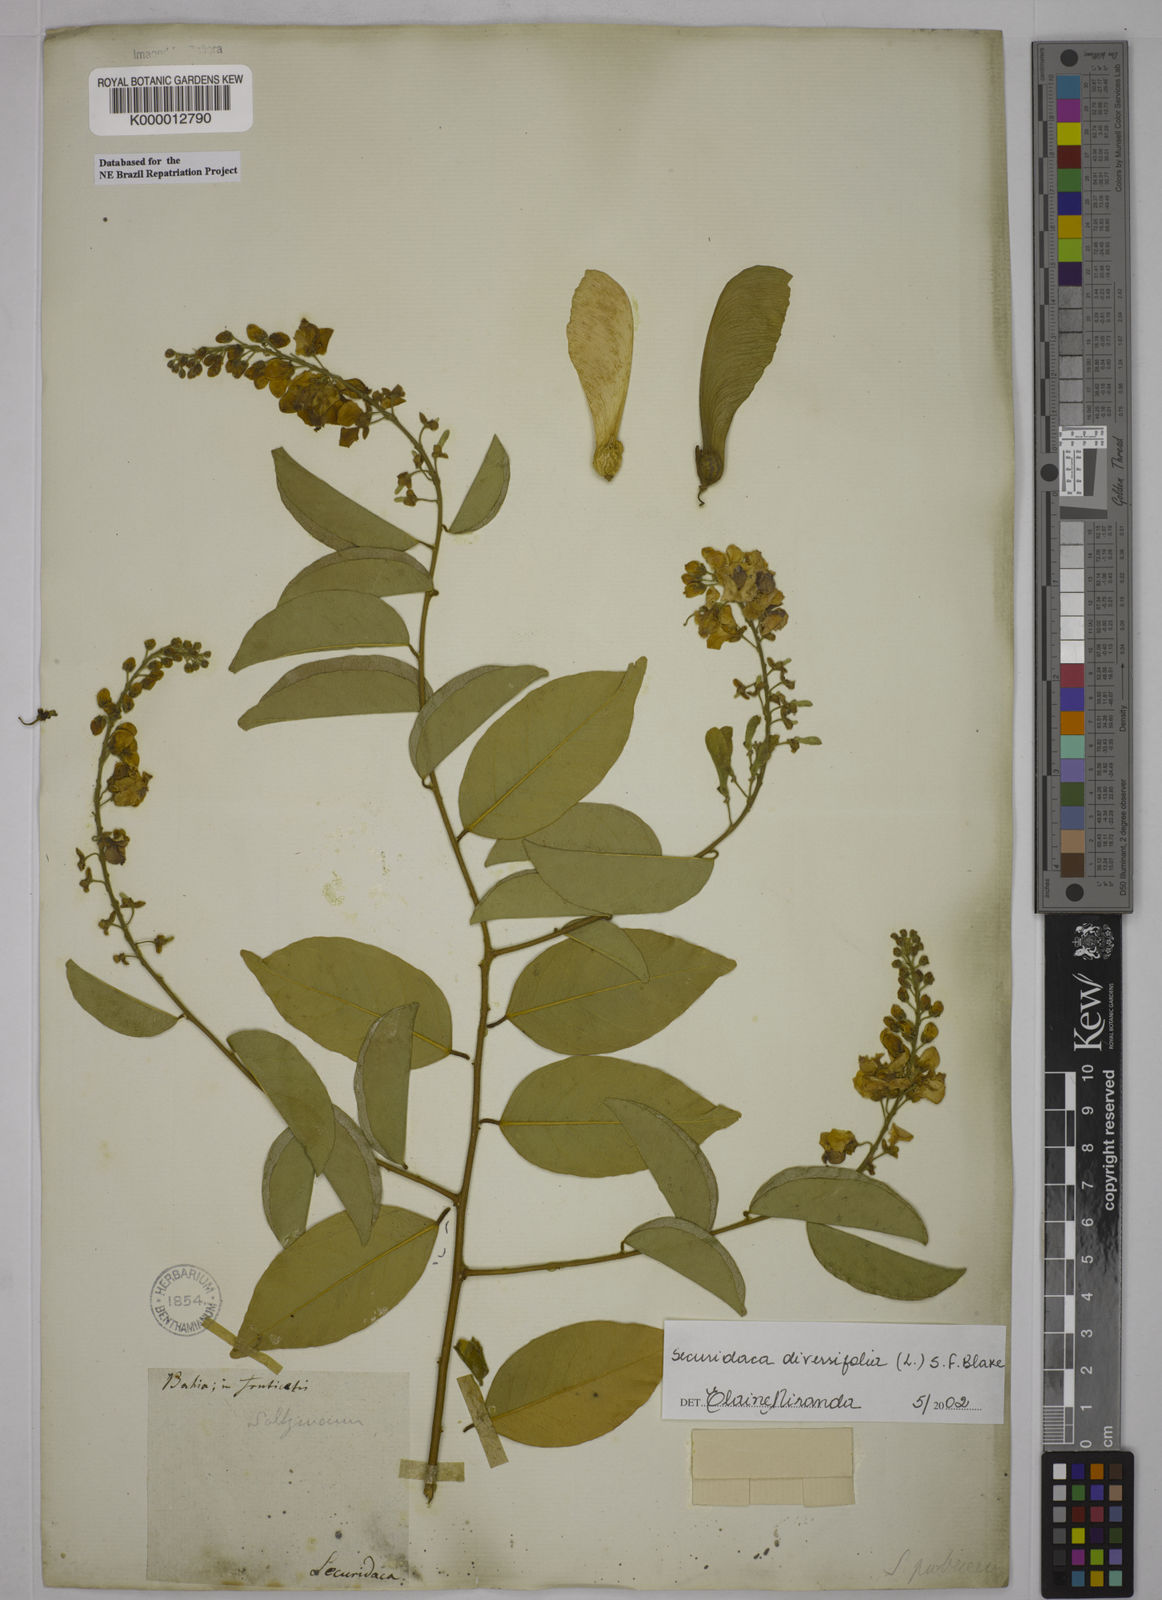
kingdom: Plantae
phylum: Tracheophyta
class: Magnoliopsida
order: Fabales
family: Polygalaceae
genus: Securidaca
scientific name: Securidaca diversifolia
